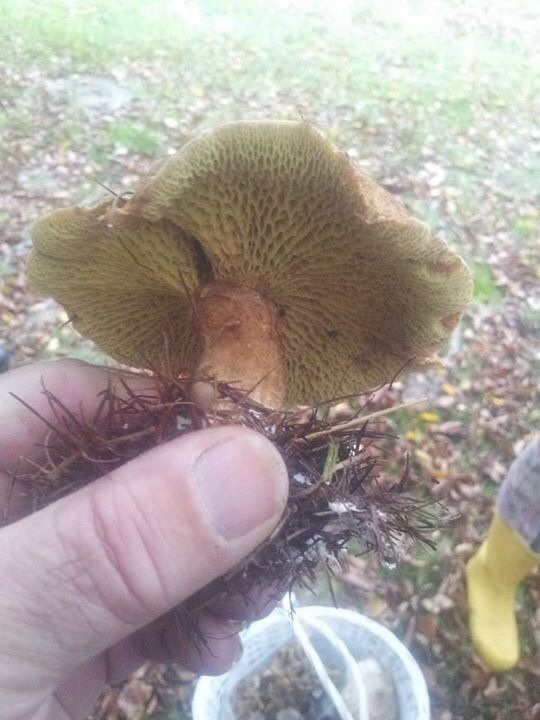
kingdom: Fungi
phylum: Basidiomycota
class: Agaricomycetes
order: Boletales
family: Suillaceae
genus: Suillus
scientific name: Suillus cavipes
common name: hulstokket slimrørhat
